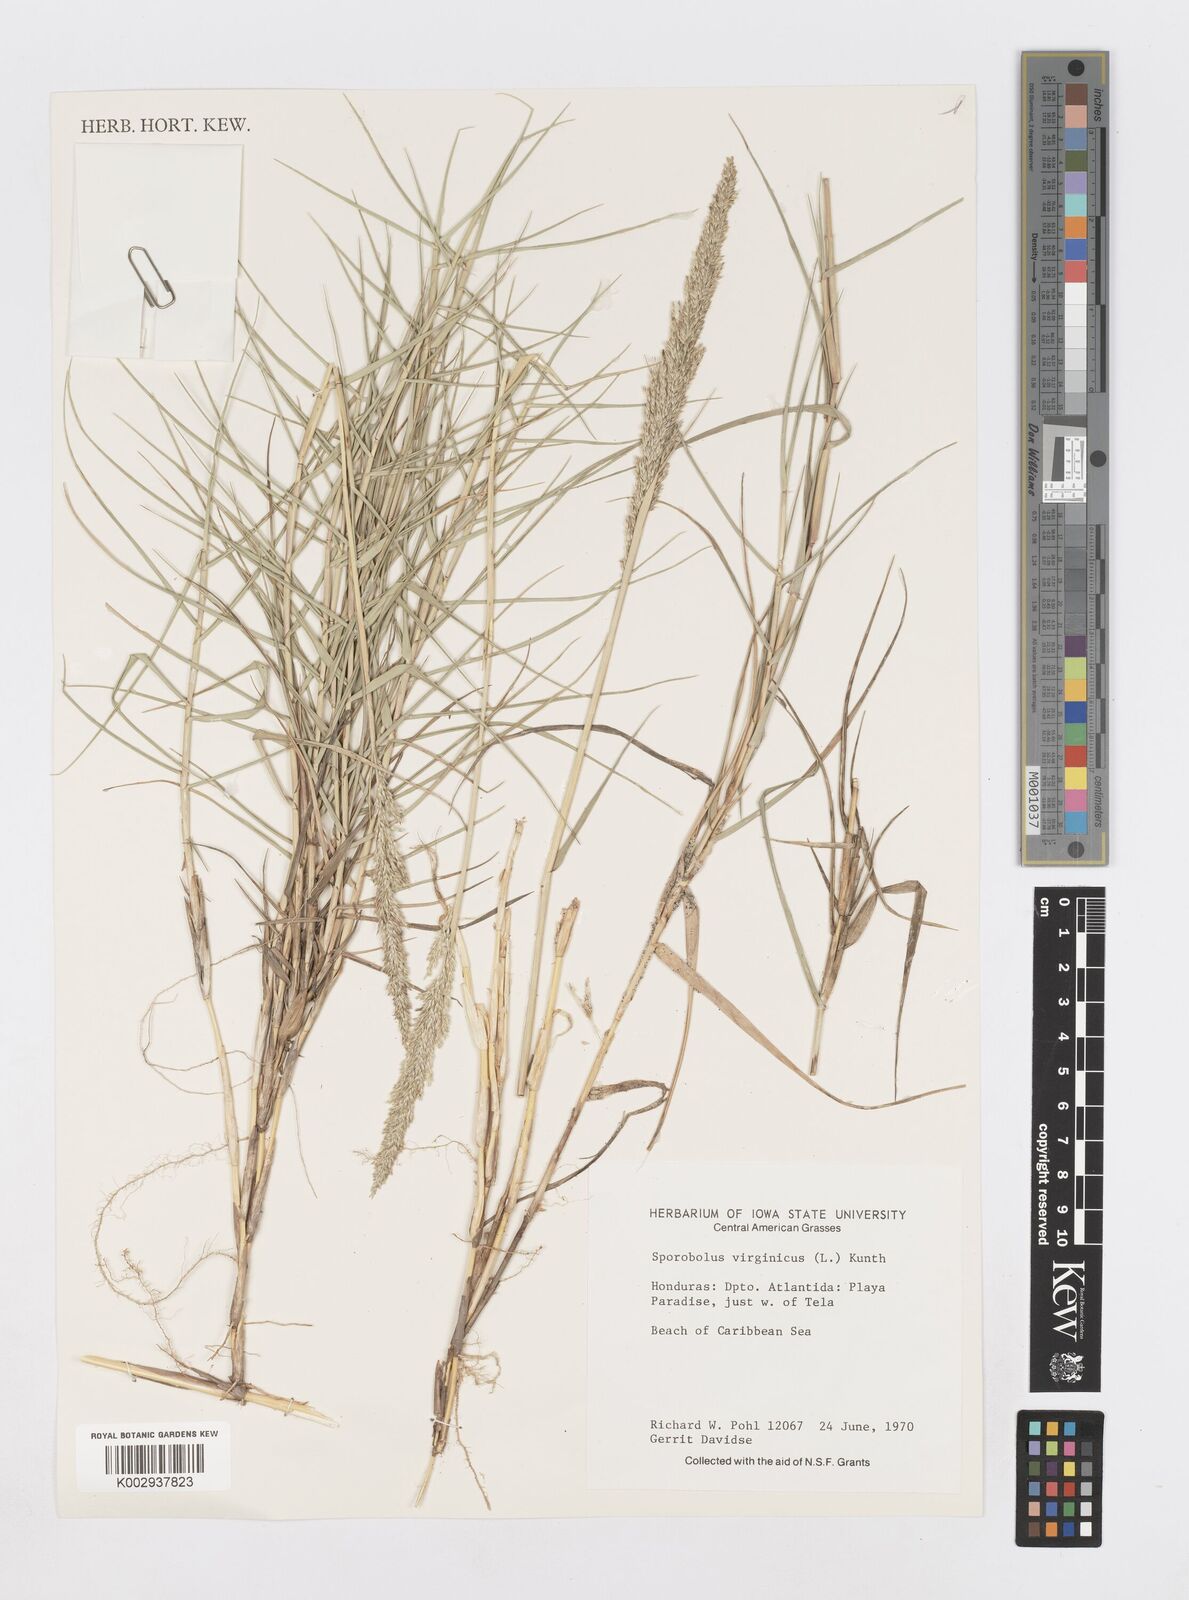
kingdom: Plantae
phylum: Tracheophyta
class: Liliopsida
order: Poales
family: Poaceae
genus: Sporobolus
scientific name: Sporobolus virginicus
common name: Beach dropseed
